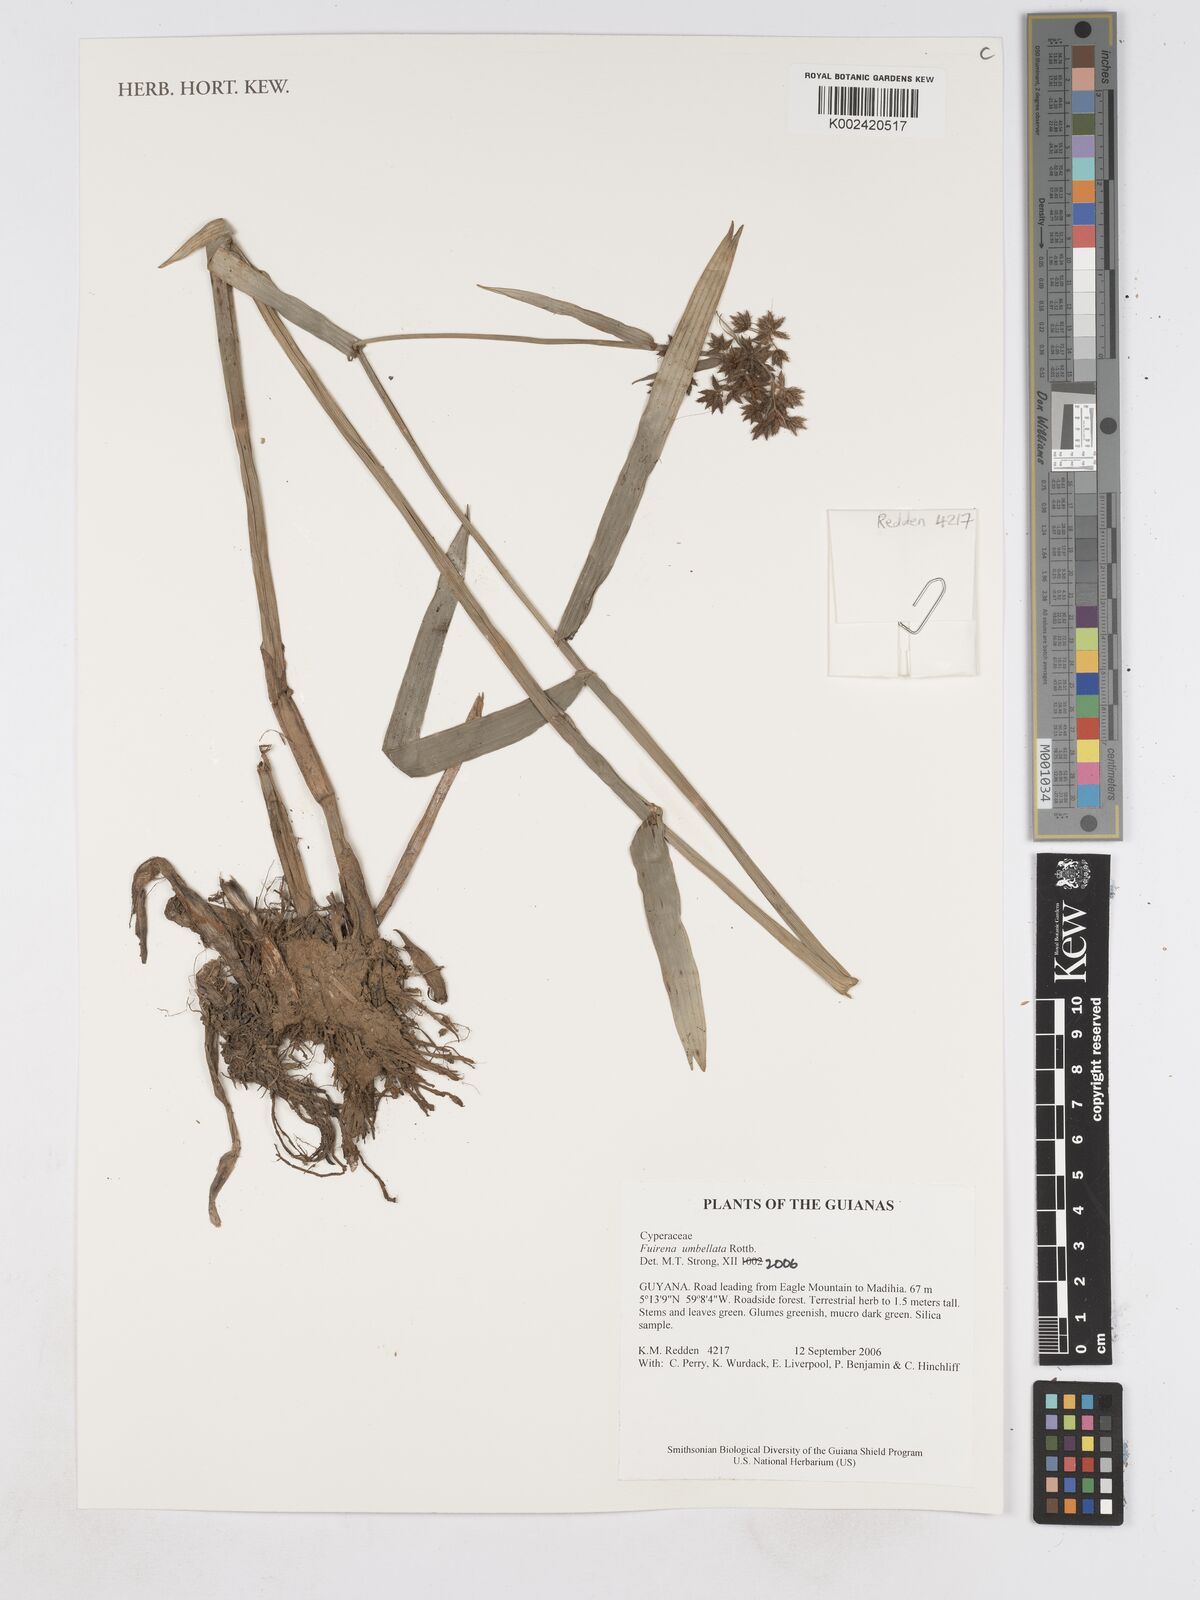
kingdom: Plantae
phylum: Tracheophyta
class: Liliopsida
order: Poales
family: Cyperaceae
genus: Fuirena
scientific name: Fuirena umbellata
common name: Yefen
